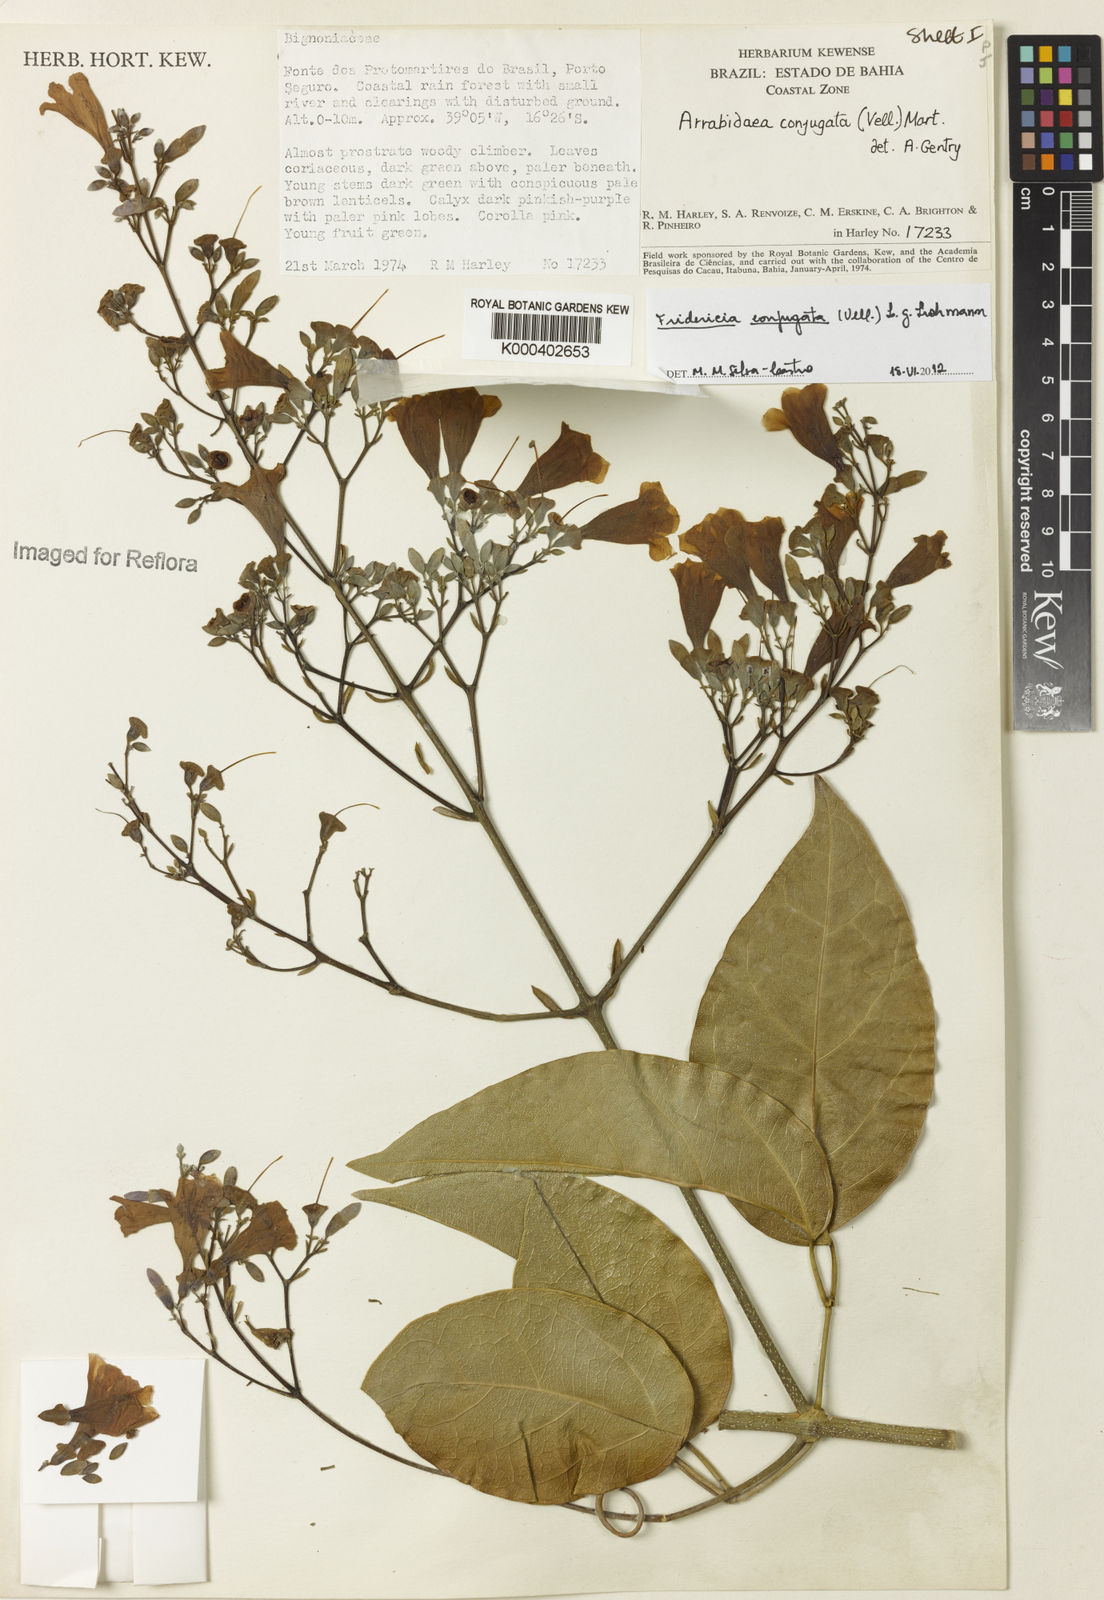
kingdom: Plantae
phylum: Tracheophyta
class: Magnoliopsida
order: Lamiales
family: Bignoniaceae
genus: Fridericia
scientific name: Fridericia conjugata
